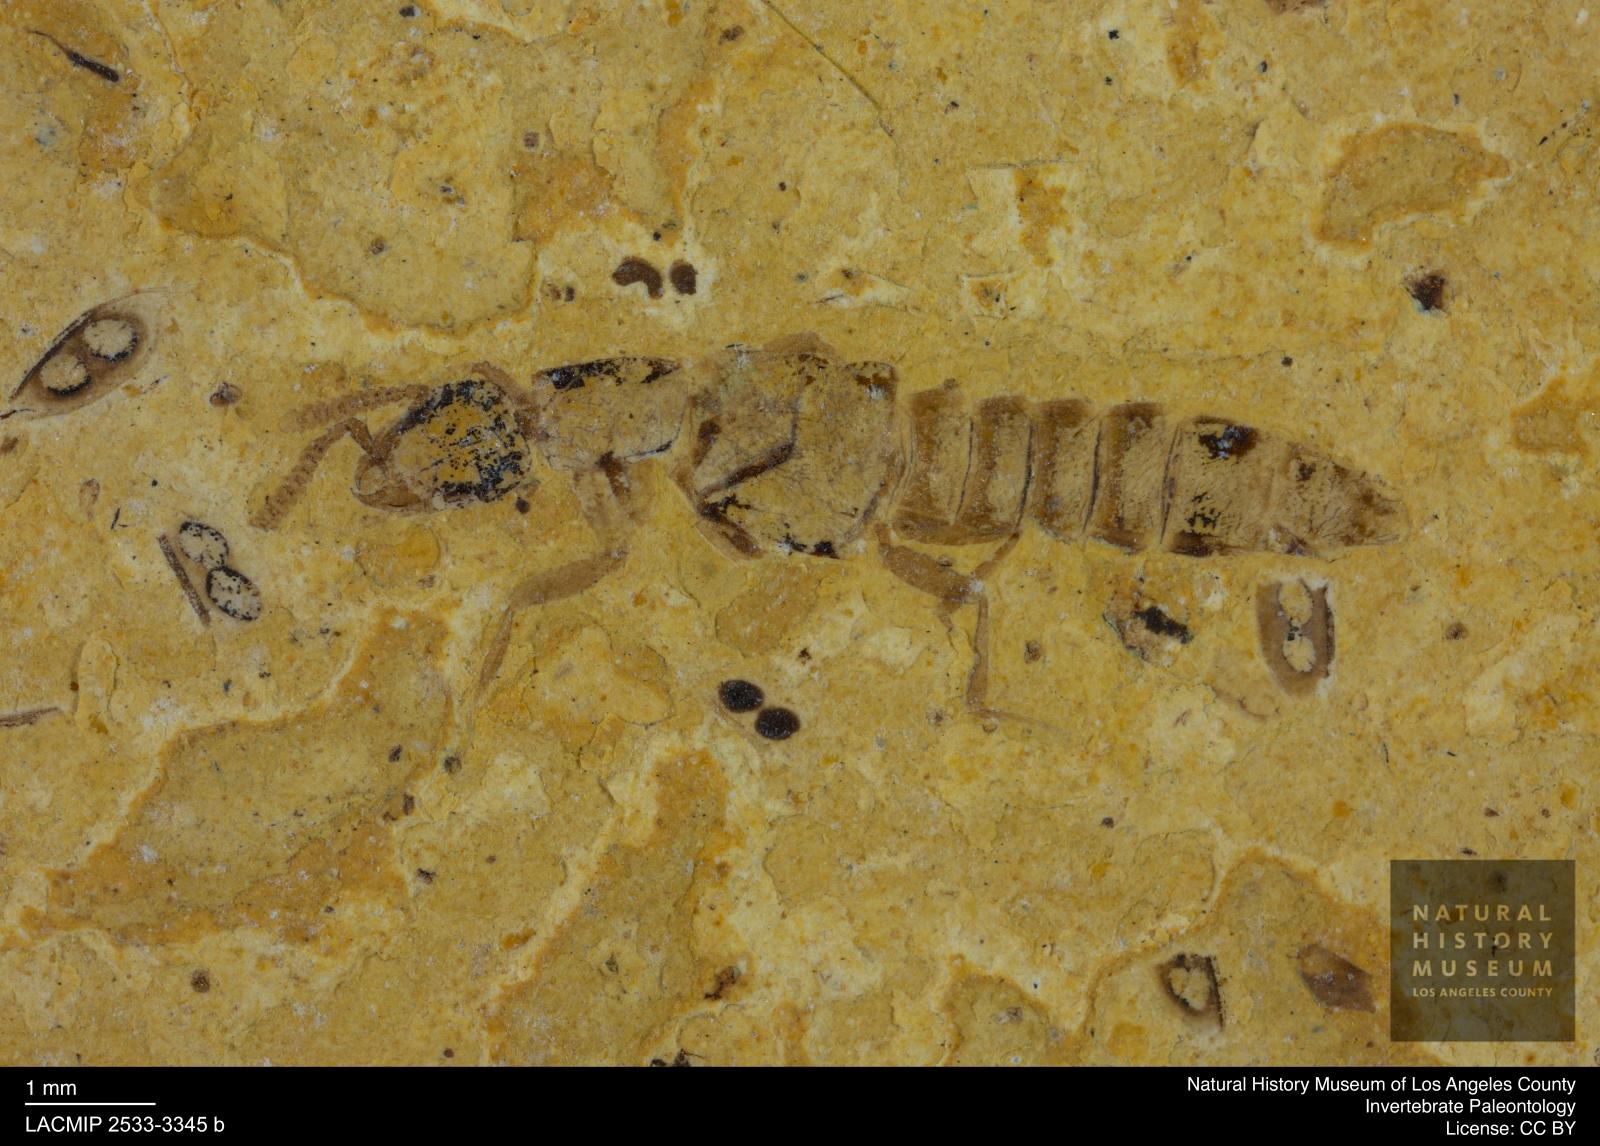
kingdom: Animalia
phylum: Arthropoda
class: Insecta
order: Coleoptera
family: Staphylinidae
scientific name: Staphylinidae
